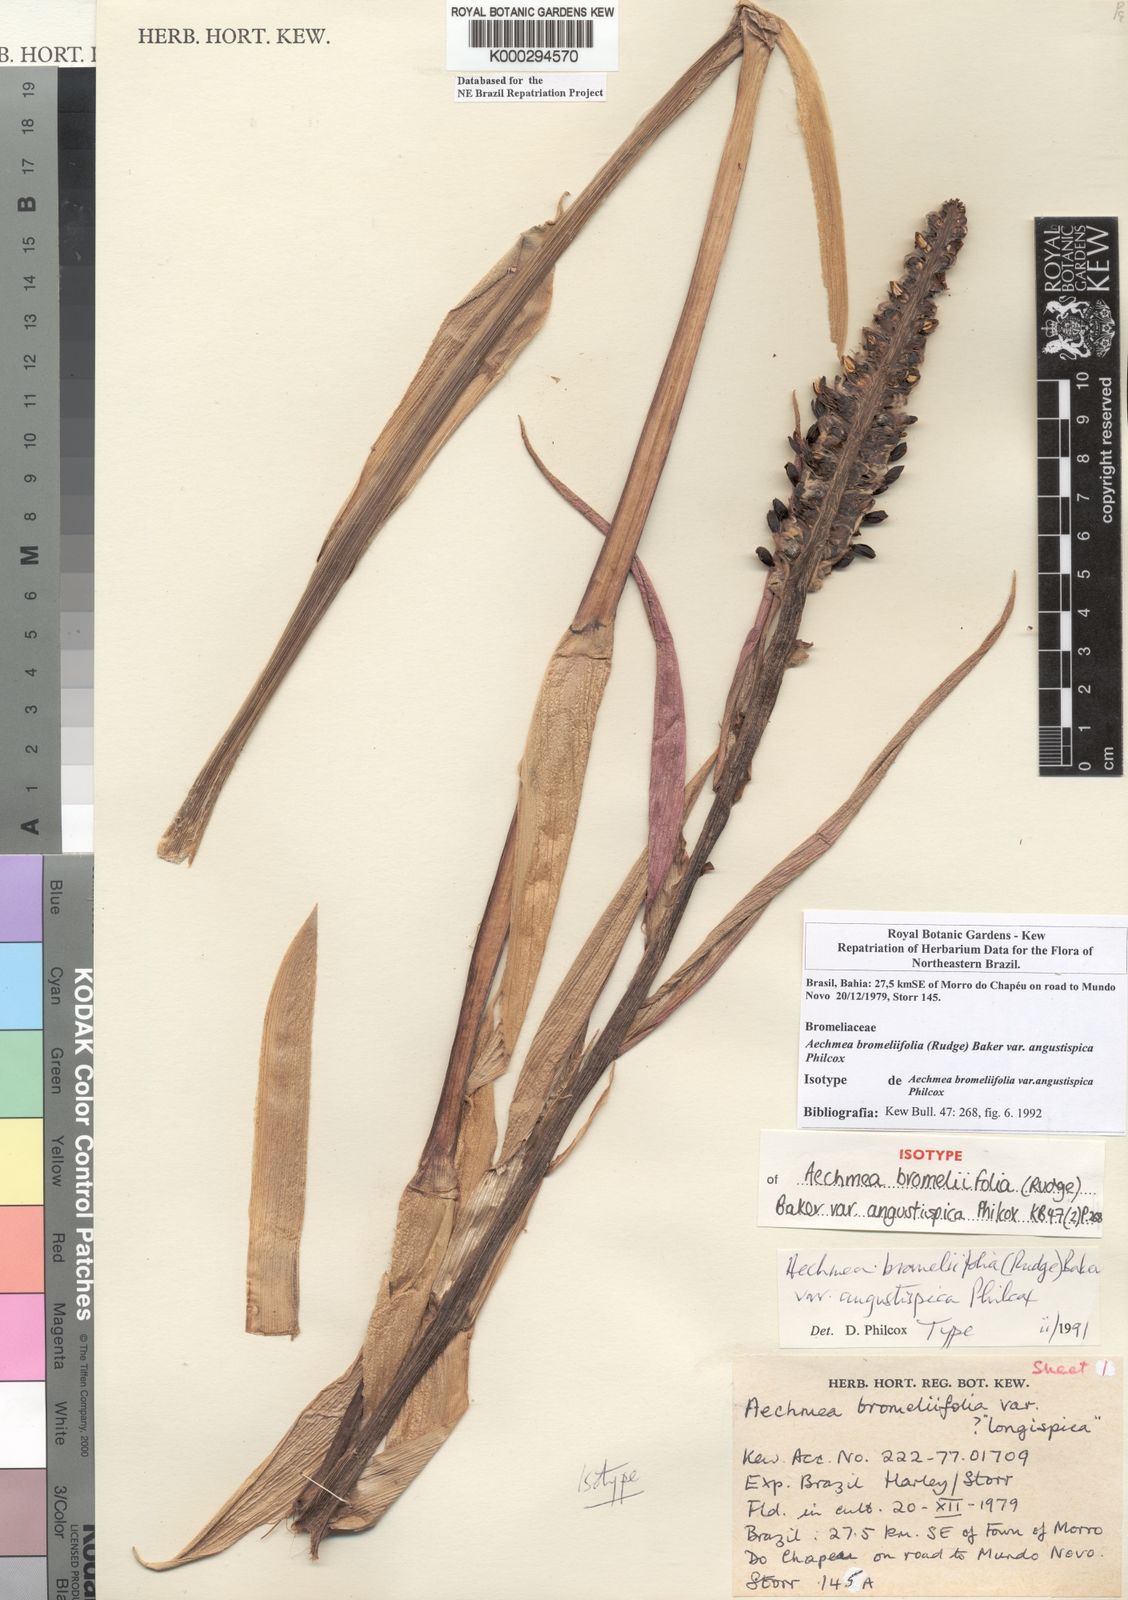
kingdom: Plantae
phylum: Tracheophyta
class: Liliopsida
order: Poales
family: Bromeliaceae
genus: Aechmea
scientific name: Aechmea bromeliifolia
